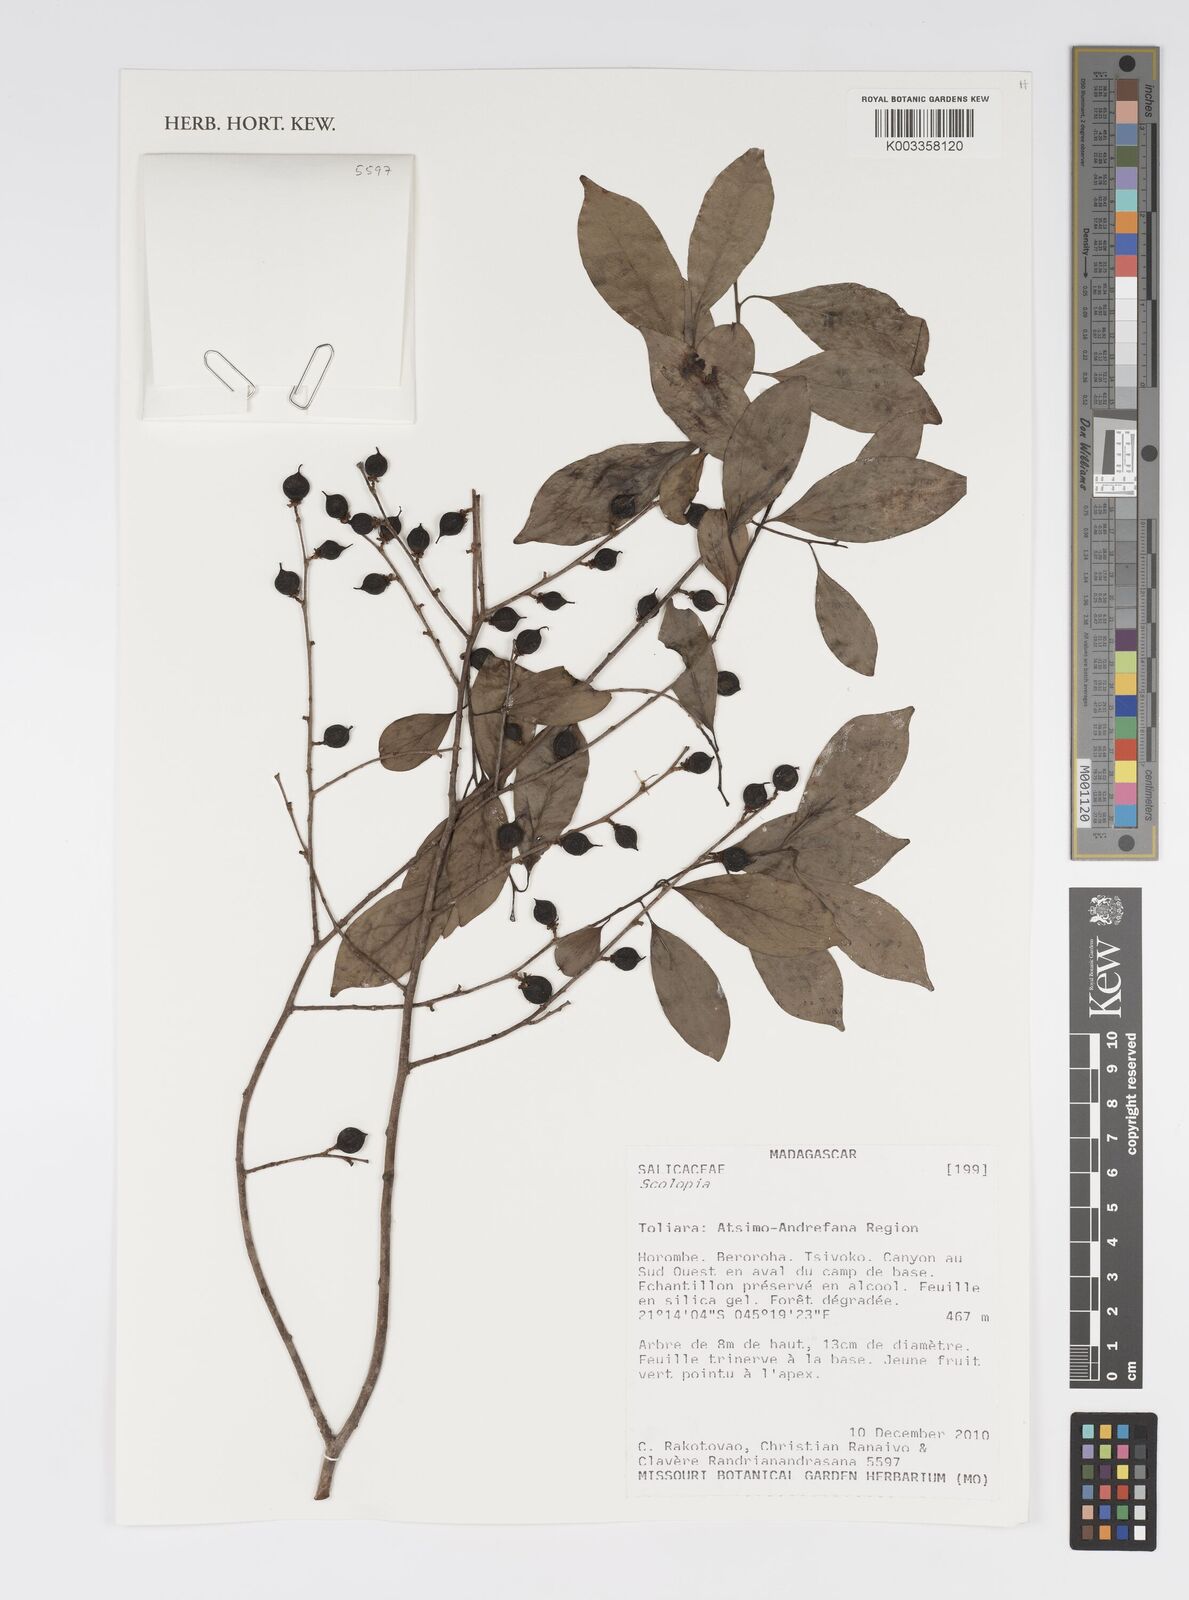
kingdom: Plantae
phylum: Tracheophyta
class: Magnoliopsida
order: Malpighiales
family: Salicaceae
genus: Scolopia
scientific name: Scolopia
